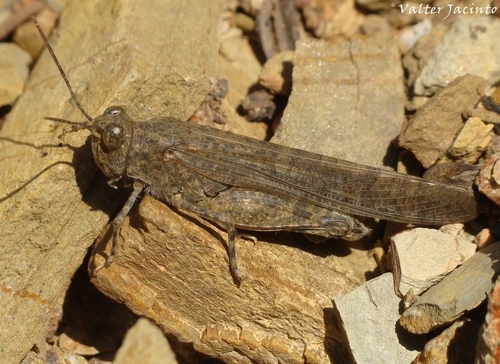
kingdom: Animalia
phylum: Arthropoda
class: Insecta
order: Orthoptera
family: Acrididae
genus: Sphingonotus
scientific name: Sphingonotus rubescens
